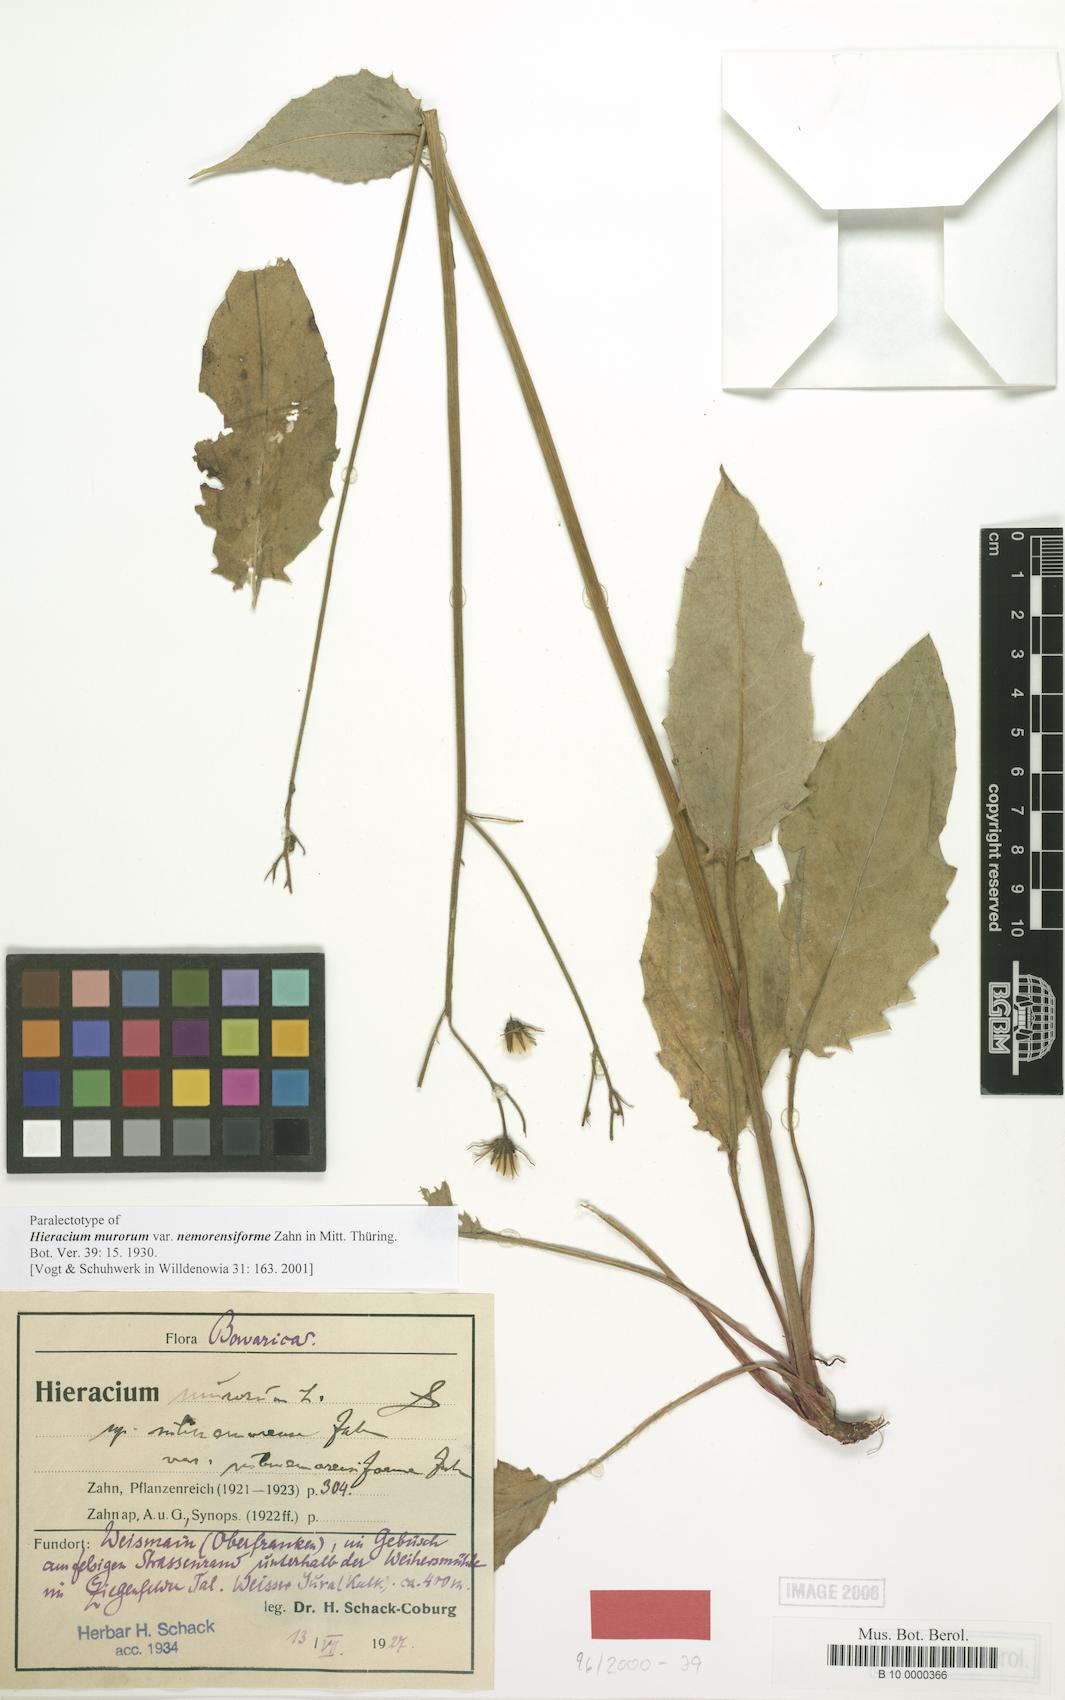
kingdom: Plantae
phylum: Tracheophyta
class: Magnoliopsida
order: Asterales
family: Asteraceae
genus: Hieracium
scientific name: Hieracium murorum
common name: Wall hawkweed
